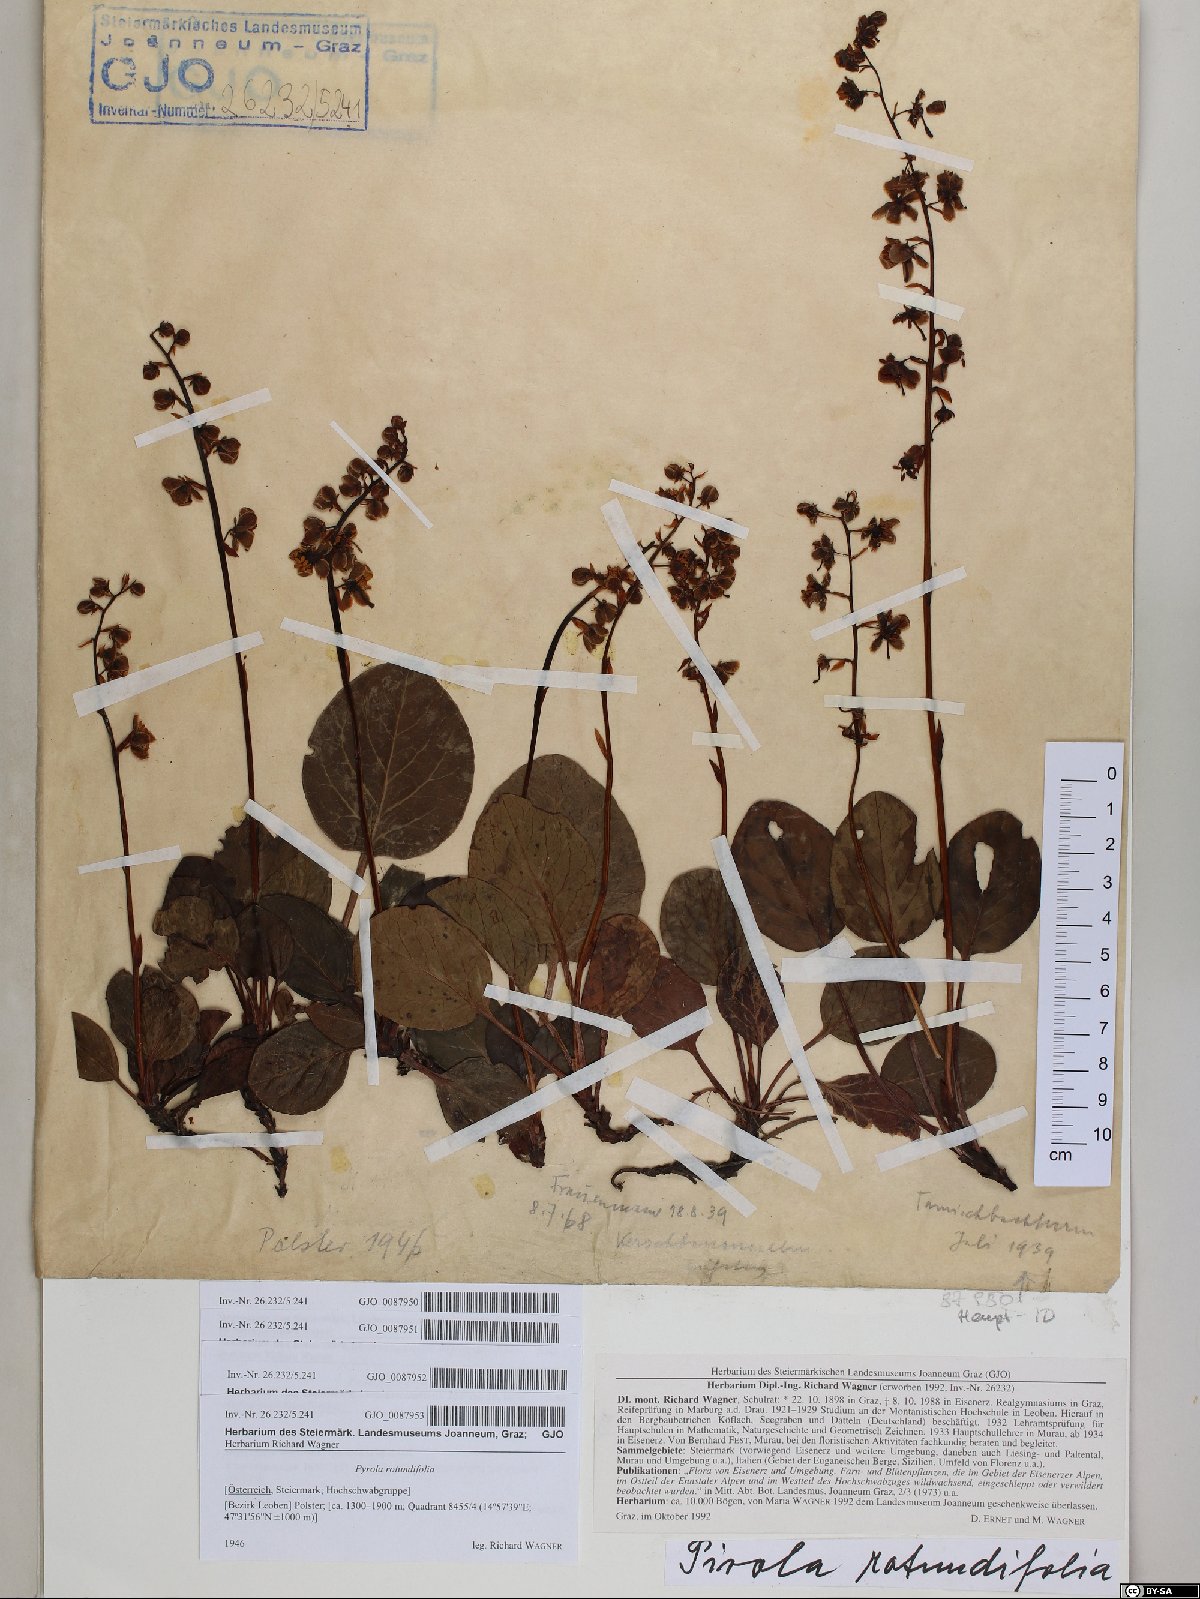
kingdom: Plantae
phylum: Tracheophyta
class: Magnoliopsida
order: Ericales
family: Ericaceae
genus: Pyrola
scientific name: Pyrola rotundifolia
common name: Round-leaved wintergreen
